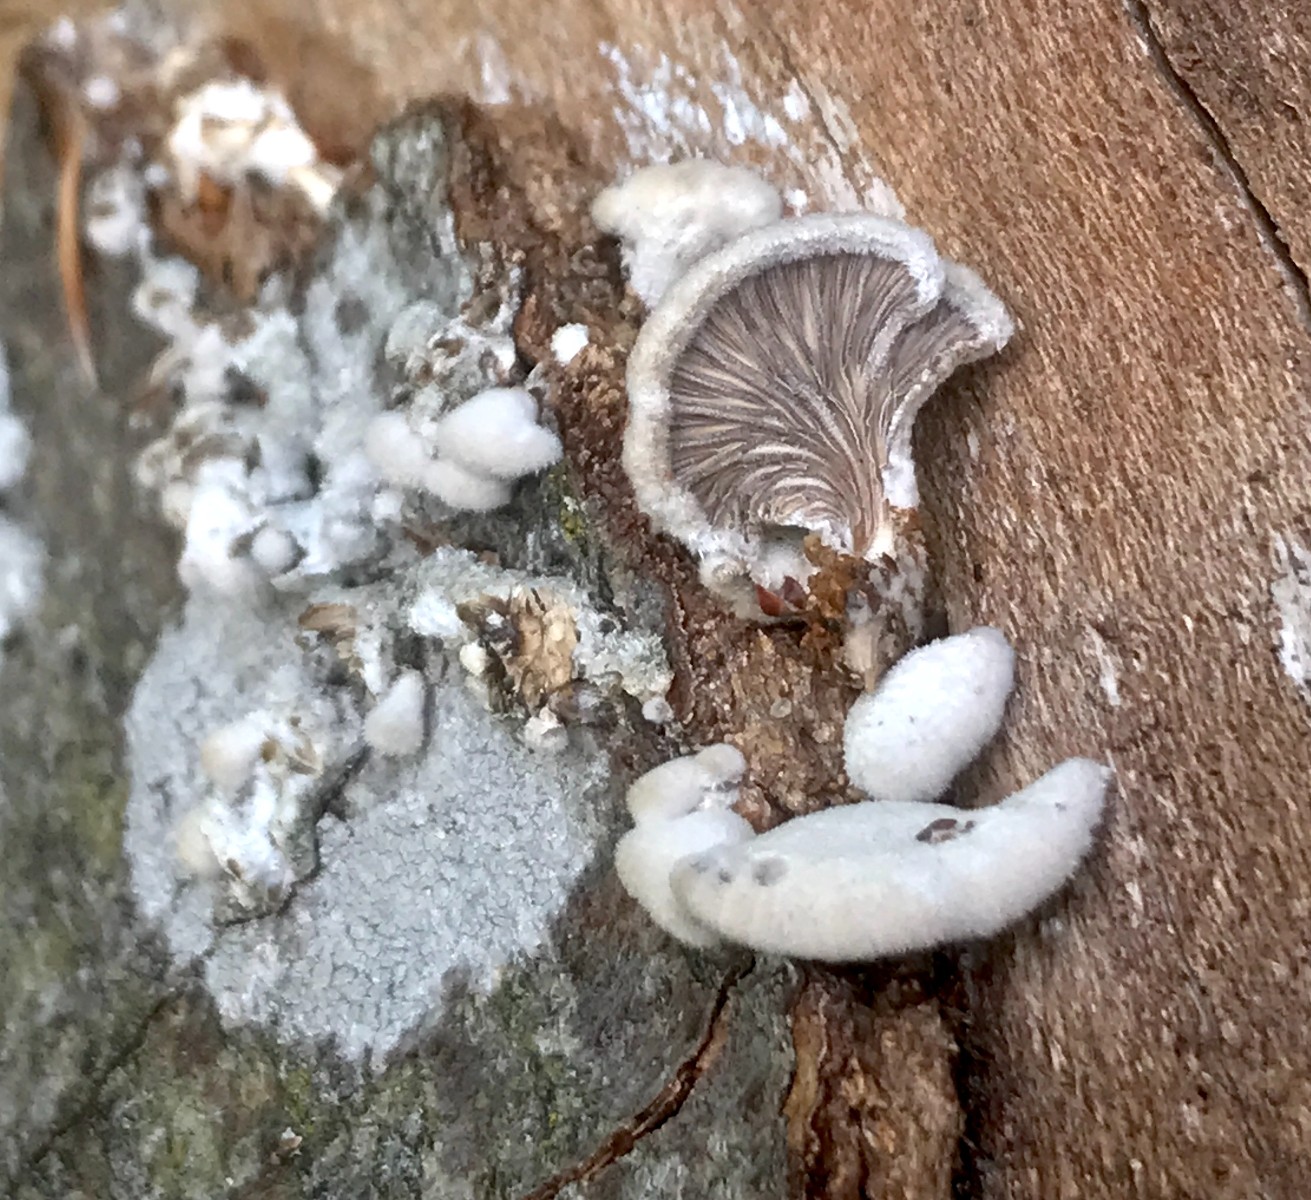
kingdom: Fungi
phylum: Basidiomycota
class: Agaricomycetes
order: Agaricales
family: Schizophyllaceae
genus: Schizophyllum
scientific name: Schizophyllum commune
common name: kløvblad
